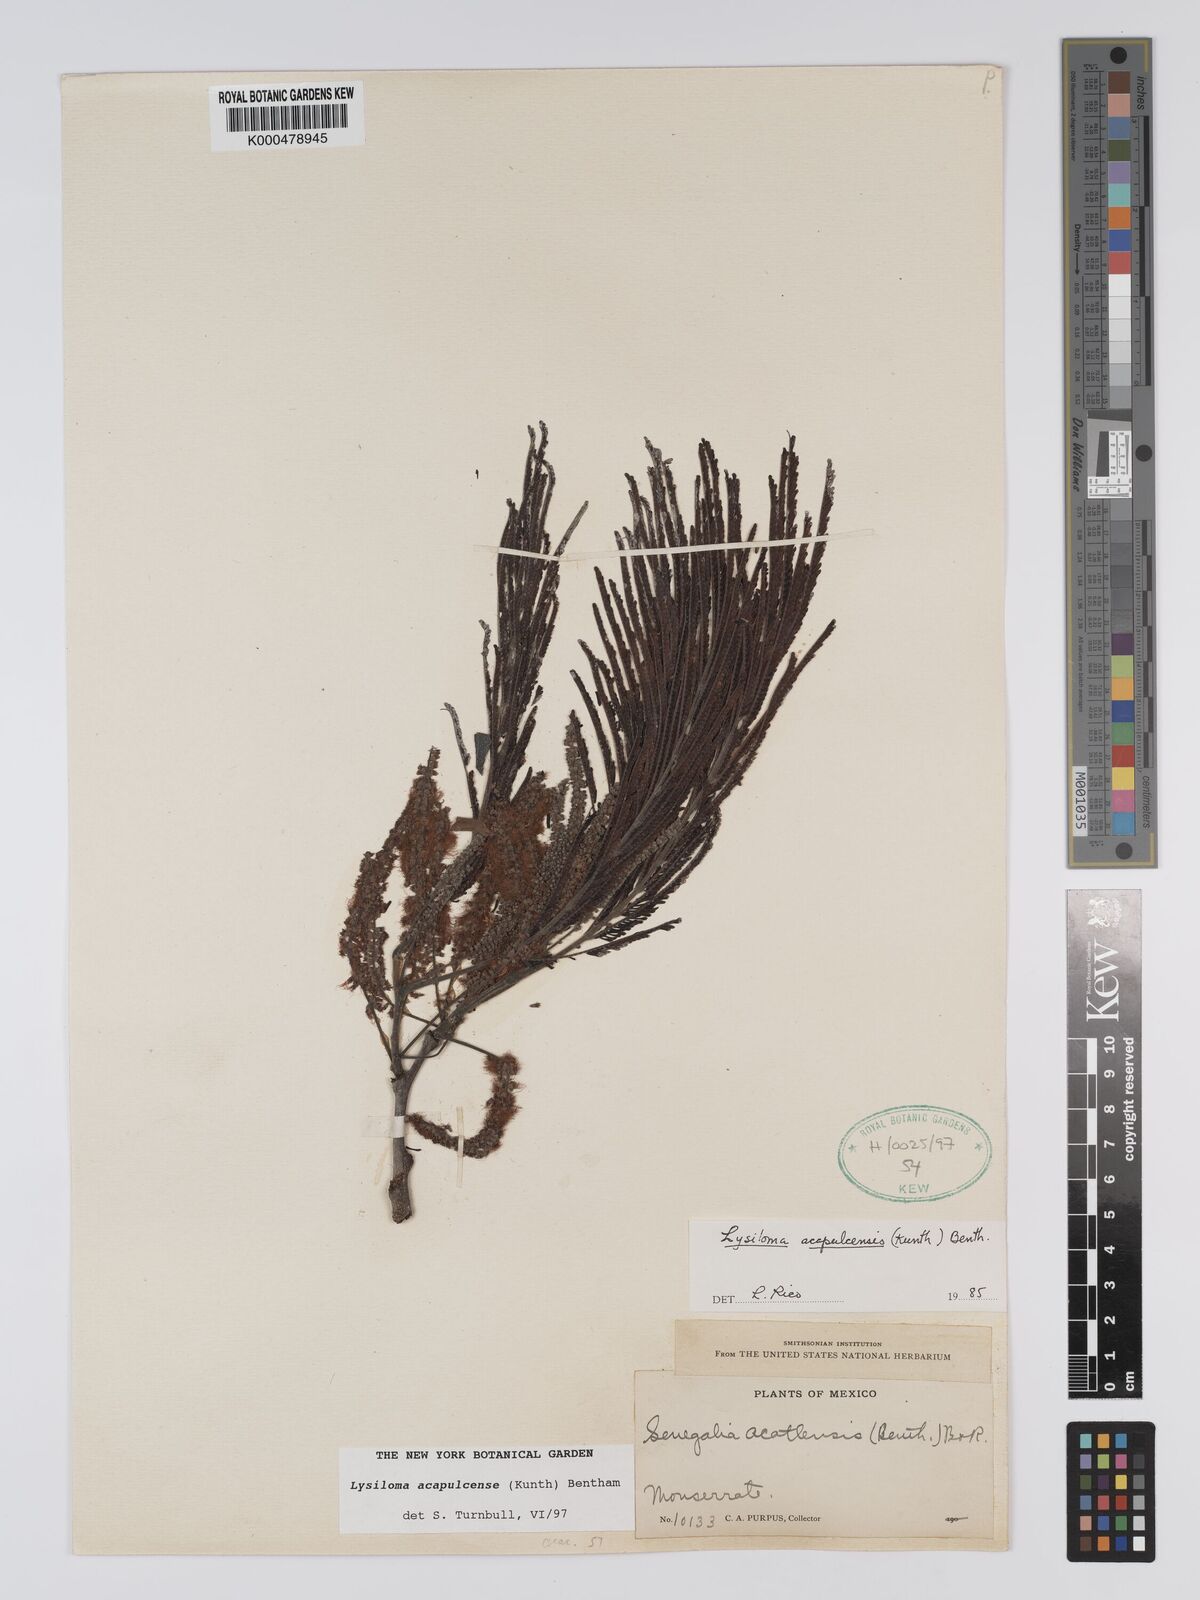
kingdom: Plantae
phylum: Tracheophyta
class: Magnoliopsida
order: Fabales
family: Fabaceae
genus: Lysiloma
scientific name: Lysiloma
